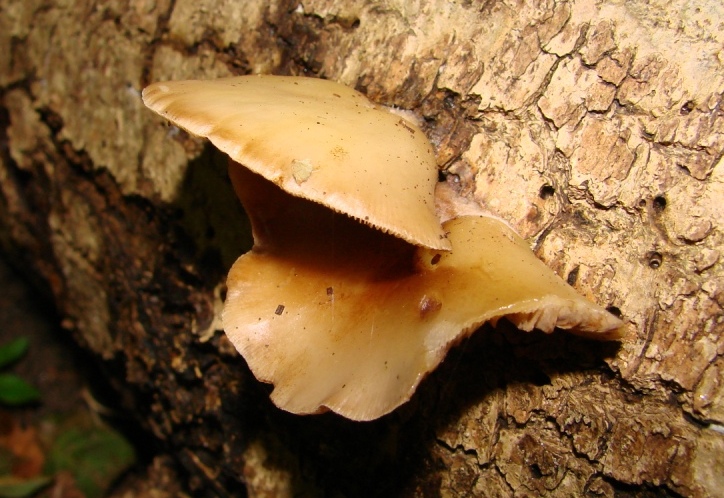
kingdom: Fungi
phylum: Basidiomycota
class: Agaricomycetes
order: Agaricales
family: Crepidotaceae
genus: Crepidotus
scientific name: Crepidotus mollis
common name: blød muslingesvamp
